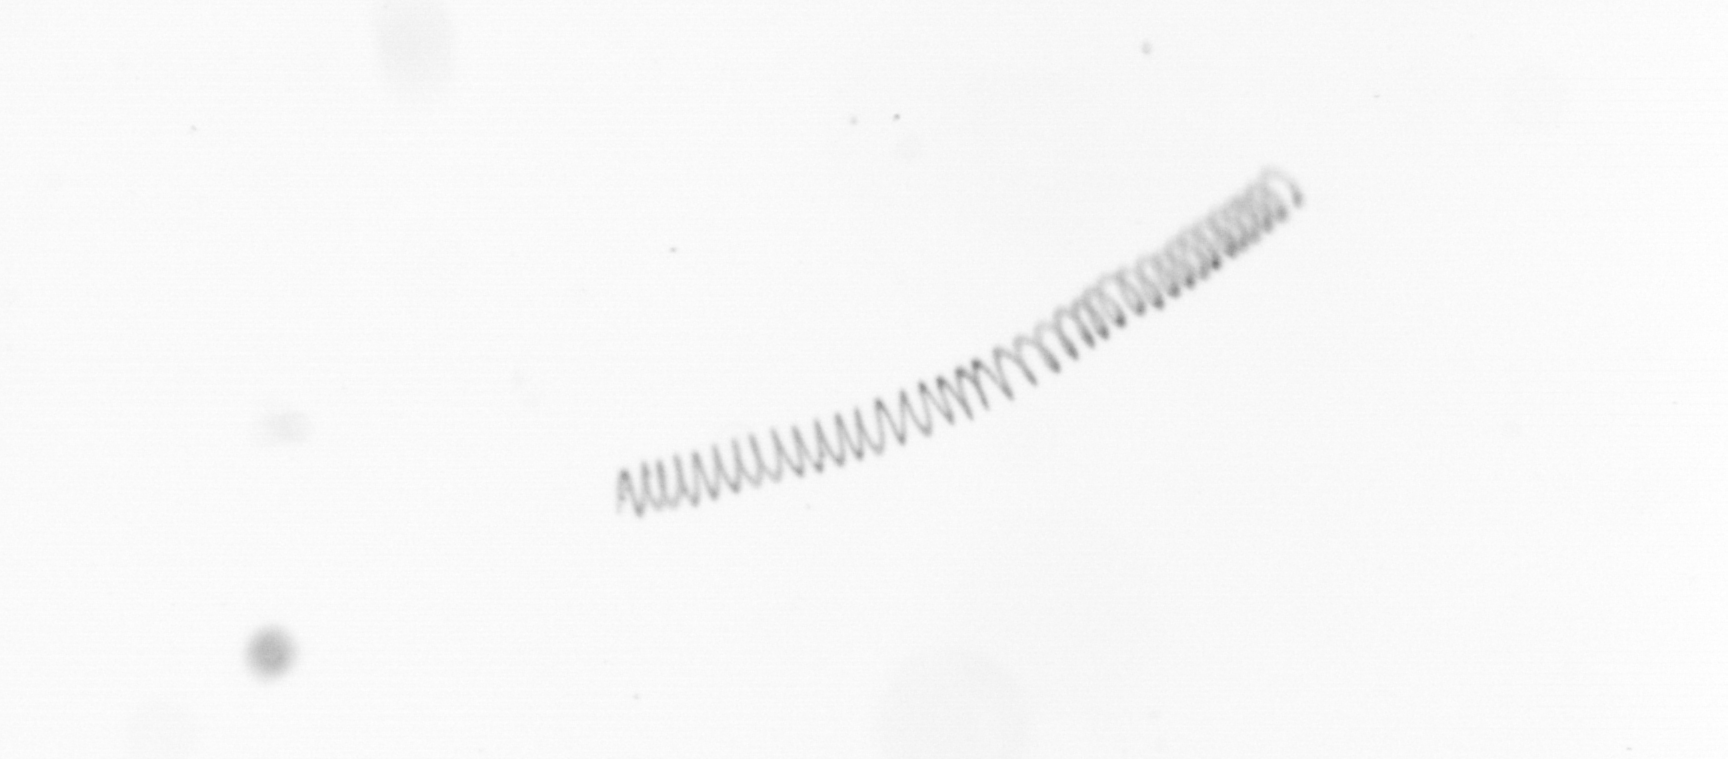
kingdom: Chromista
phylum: Ochrophyta
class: Bacillariophyceae
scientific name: Bacillariophyceae
